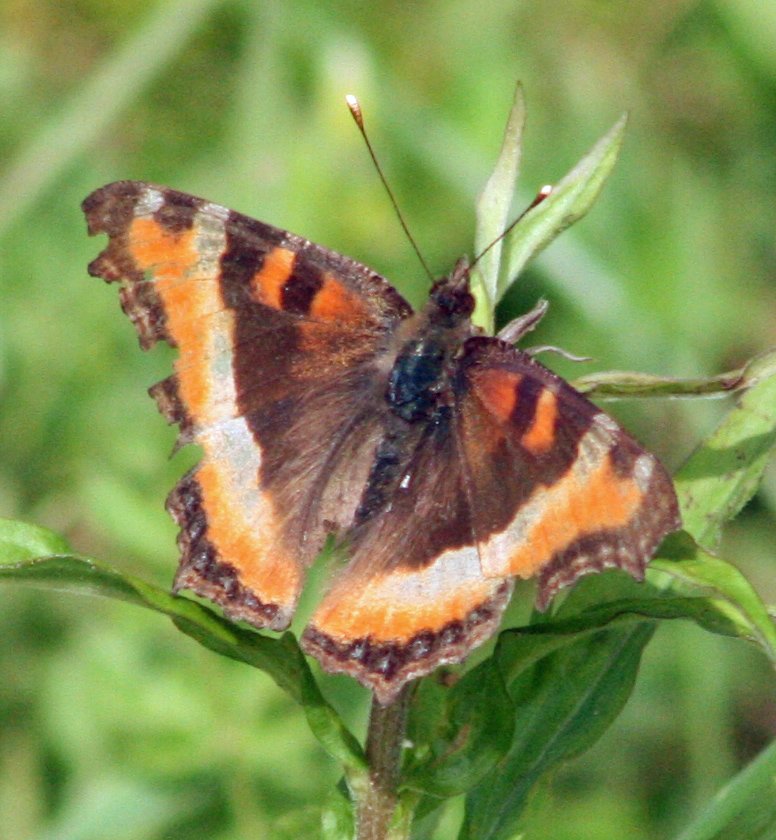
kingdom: Animalia
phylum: Arthropoda
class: Insecta
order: Lepidoptera
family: Nymphalidae
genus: Aglais
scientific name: Aglais milberti
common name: Milbert's Tortoiseshell
